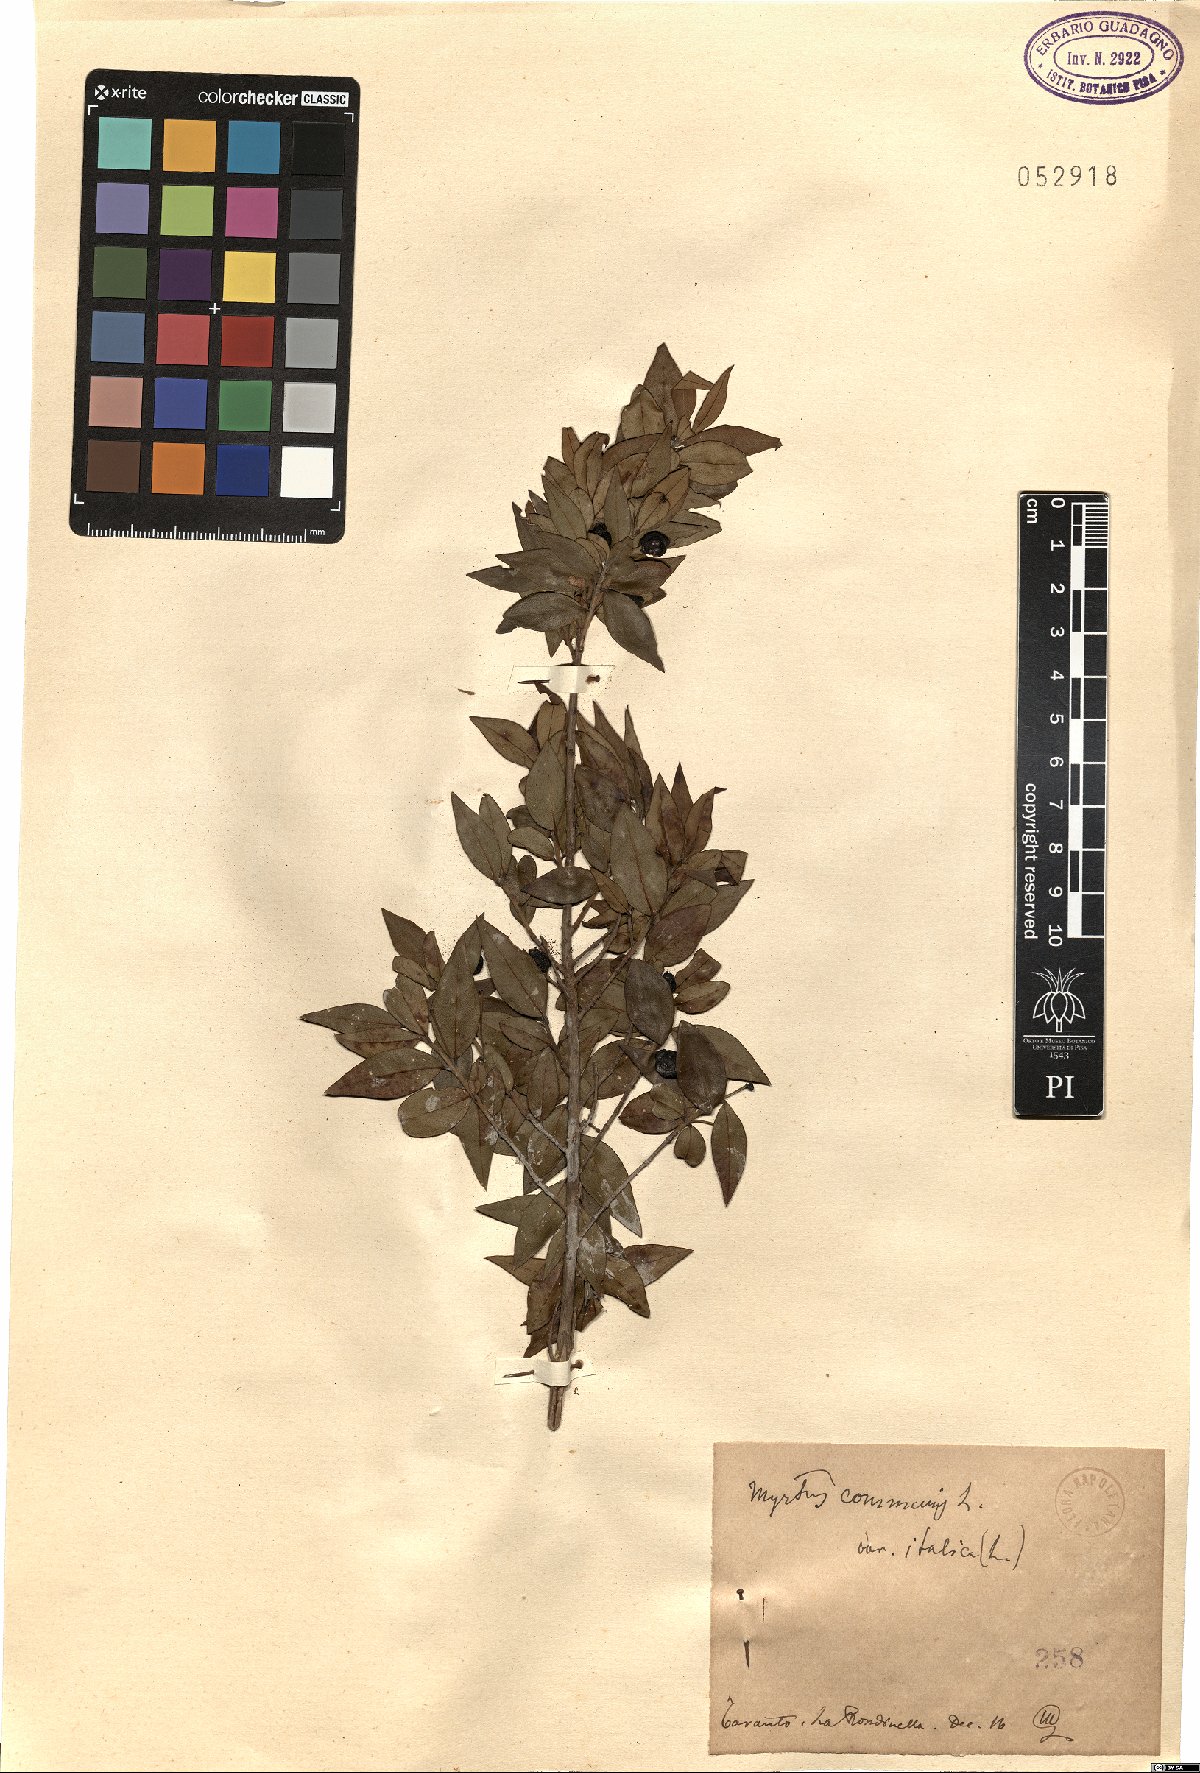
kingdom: Plantae
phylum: Tracheophyta
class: Magnoliopsida
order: Myrtales
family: Myrtaceae
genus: Myrtus
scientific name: Myrtus communis
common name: Myrtle
